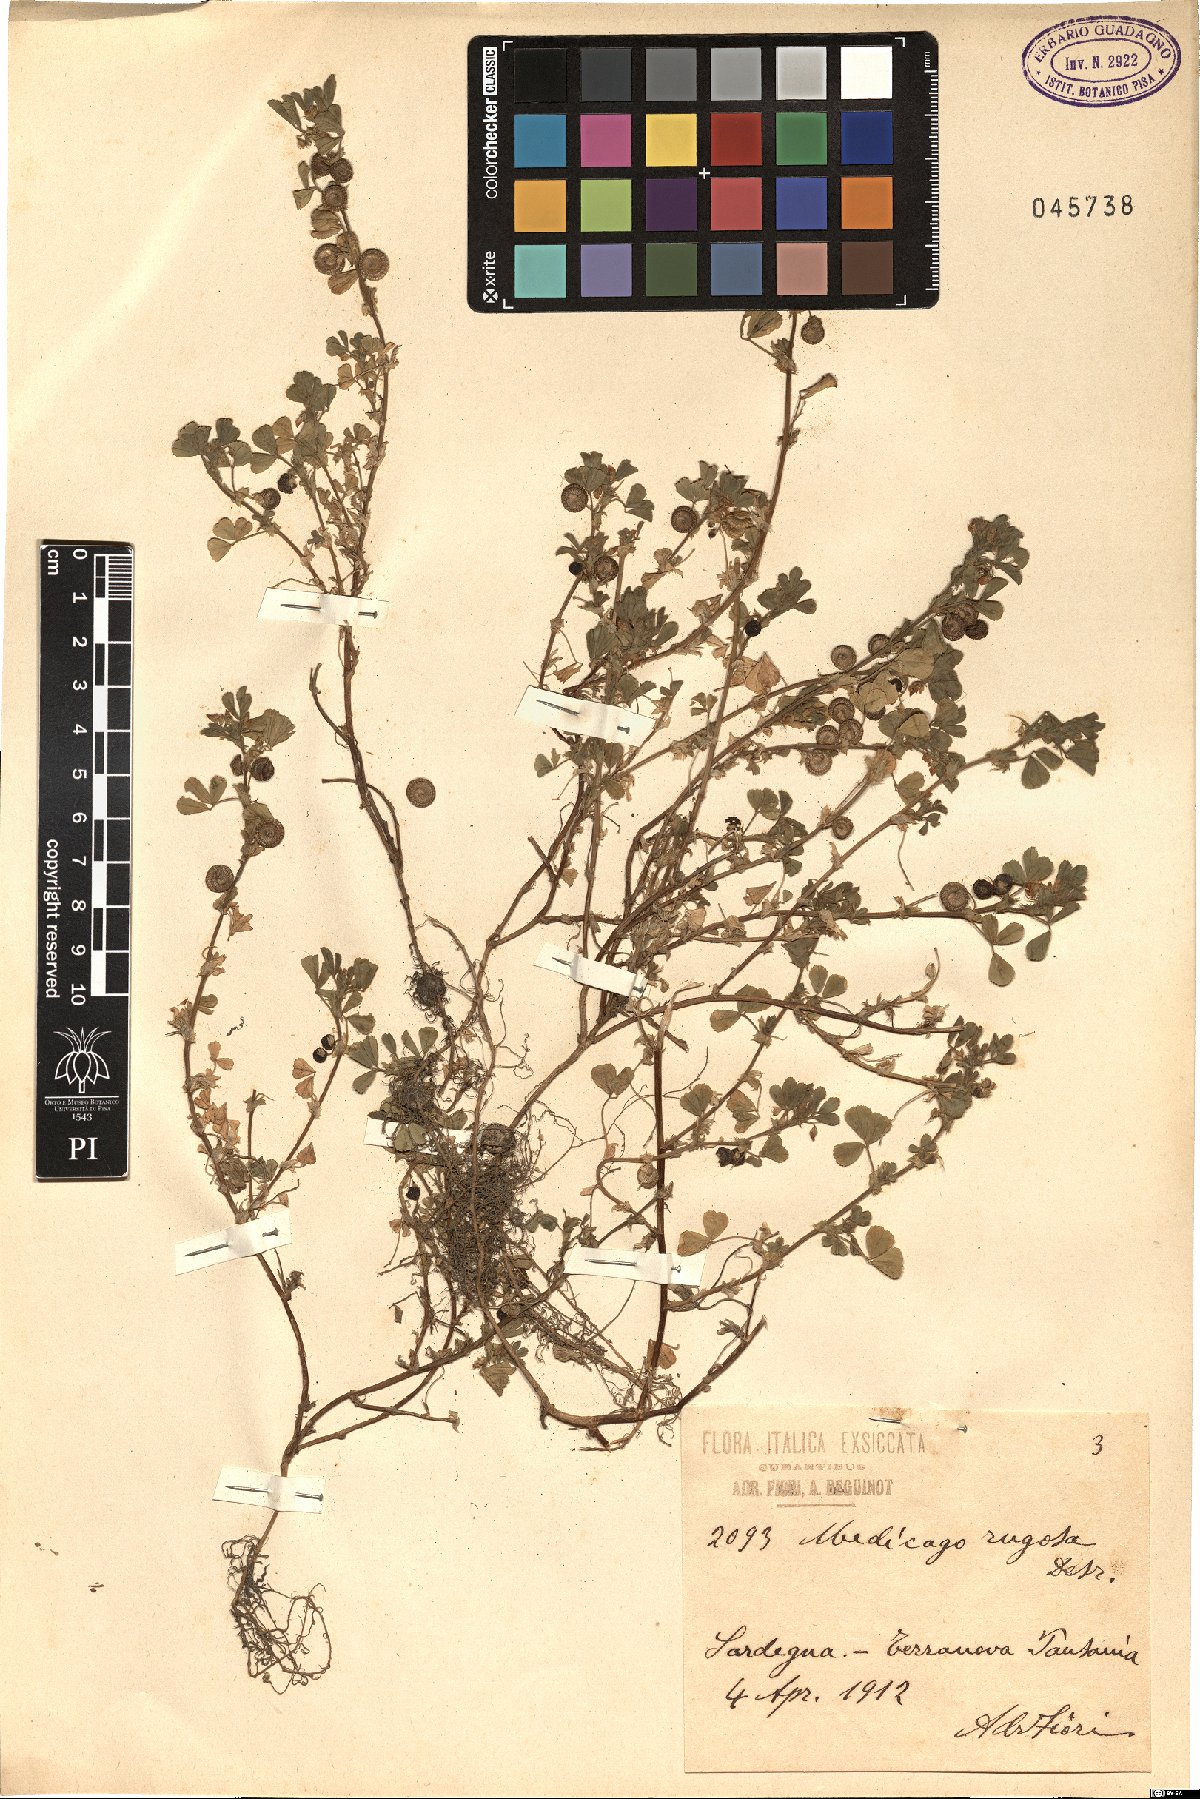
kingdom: Plantae
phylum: Tracheophyta
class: Magnoliopsida
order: Fabales
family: Fabaceae
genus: Medicago
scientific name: Medicago rugosa
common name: Gama medic
